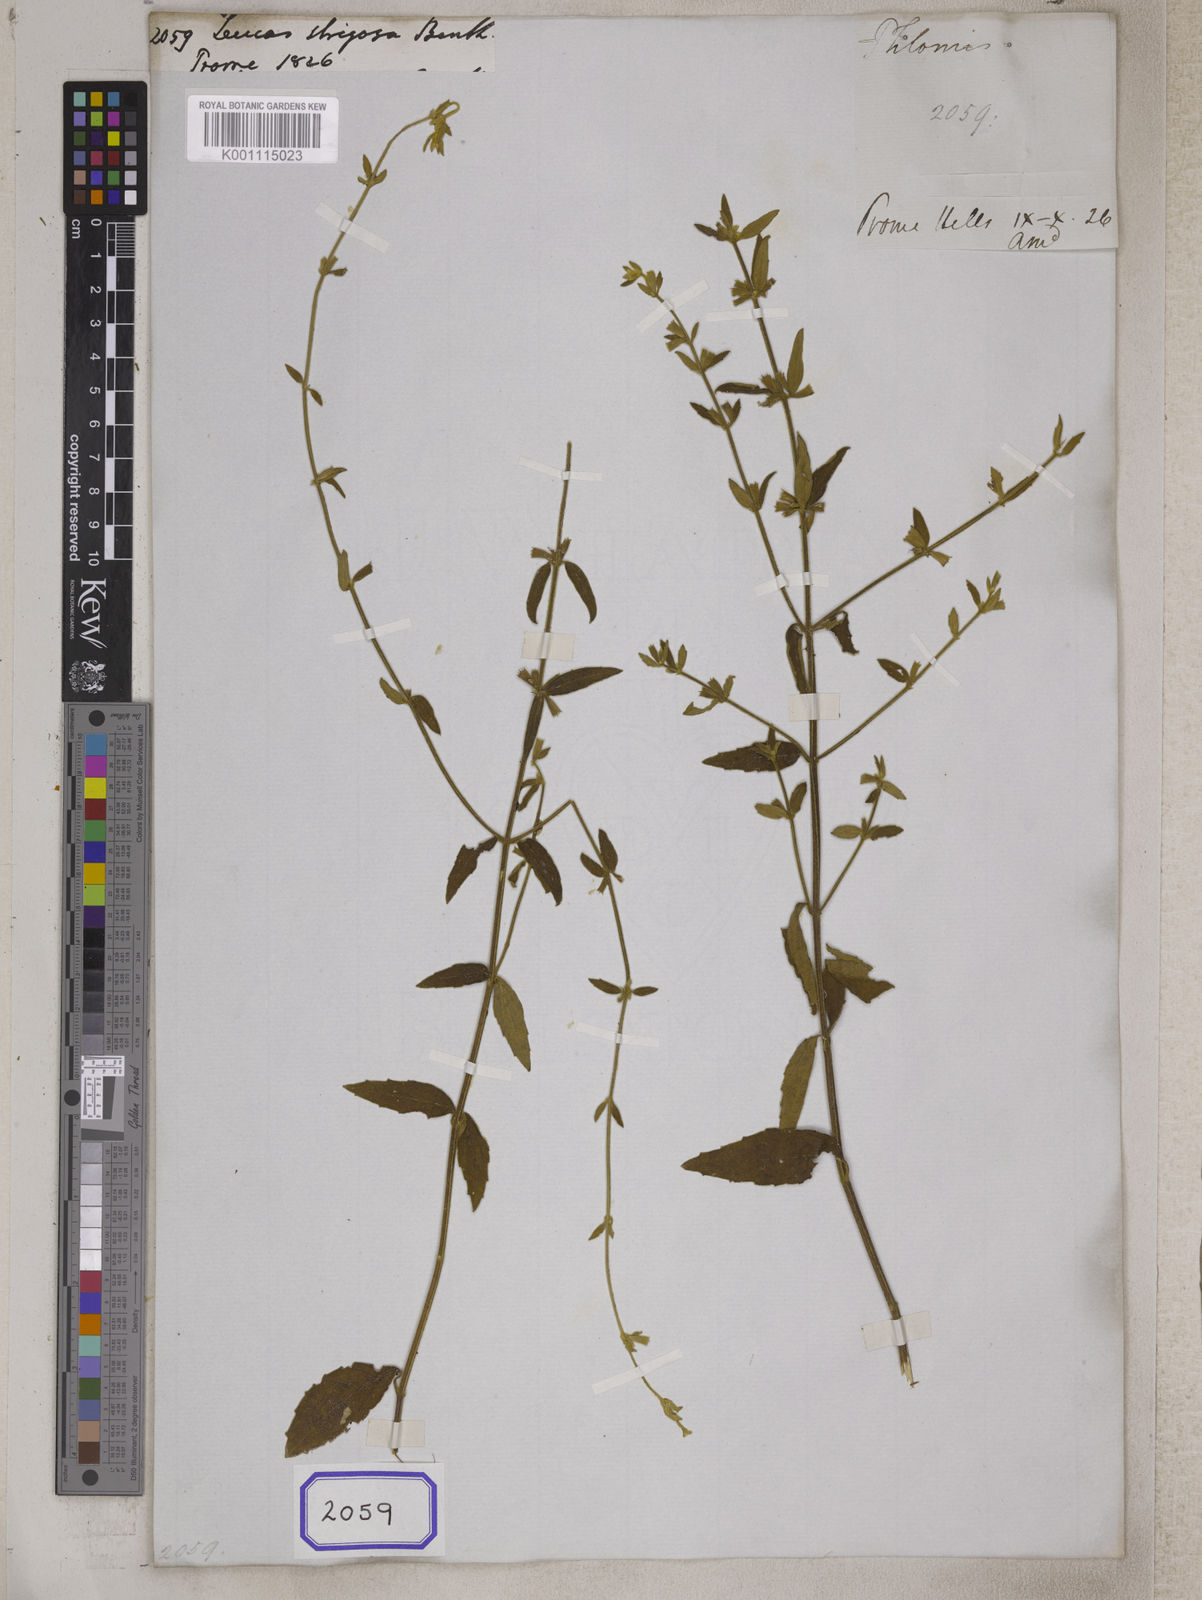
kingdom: Plantae
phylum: Tracheophyta
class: Magnoliopsida
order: Lamiales
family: Lamiaceae
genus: Leucas
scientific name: Leucas decemdentata
